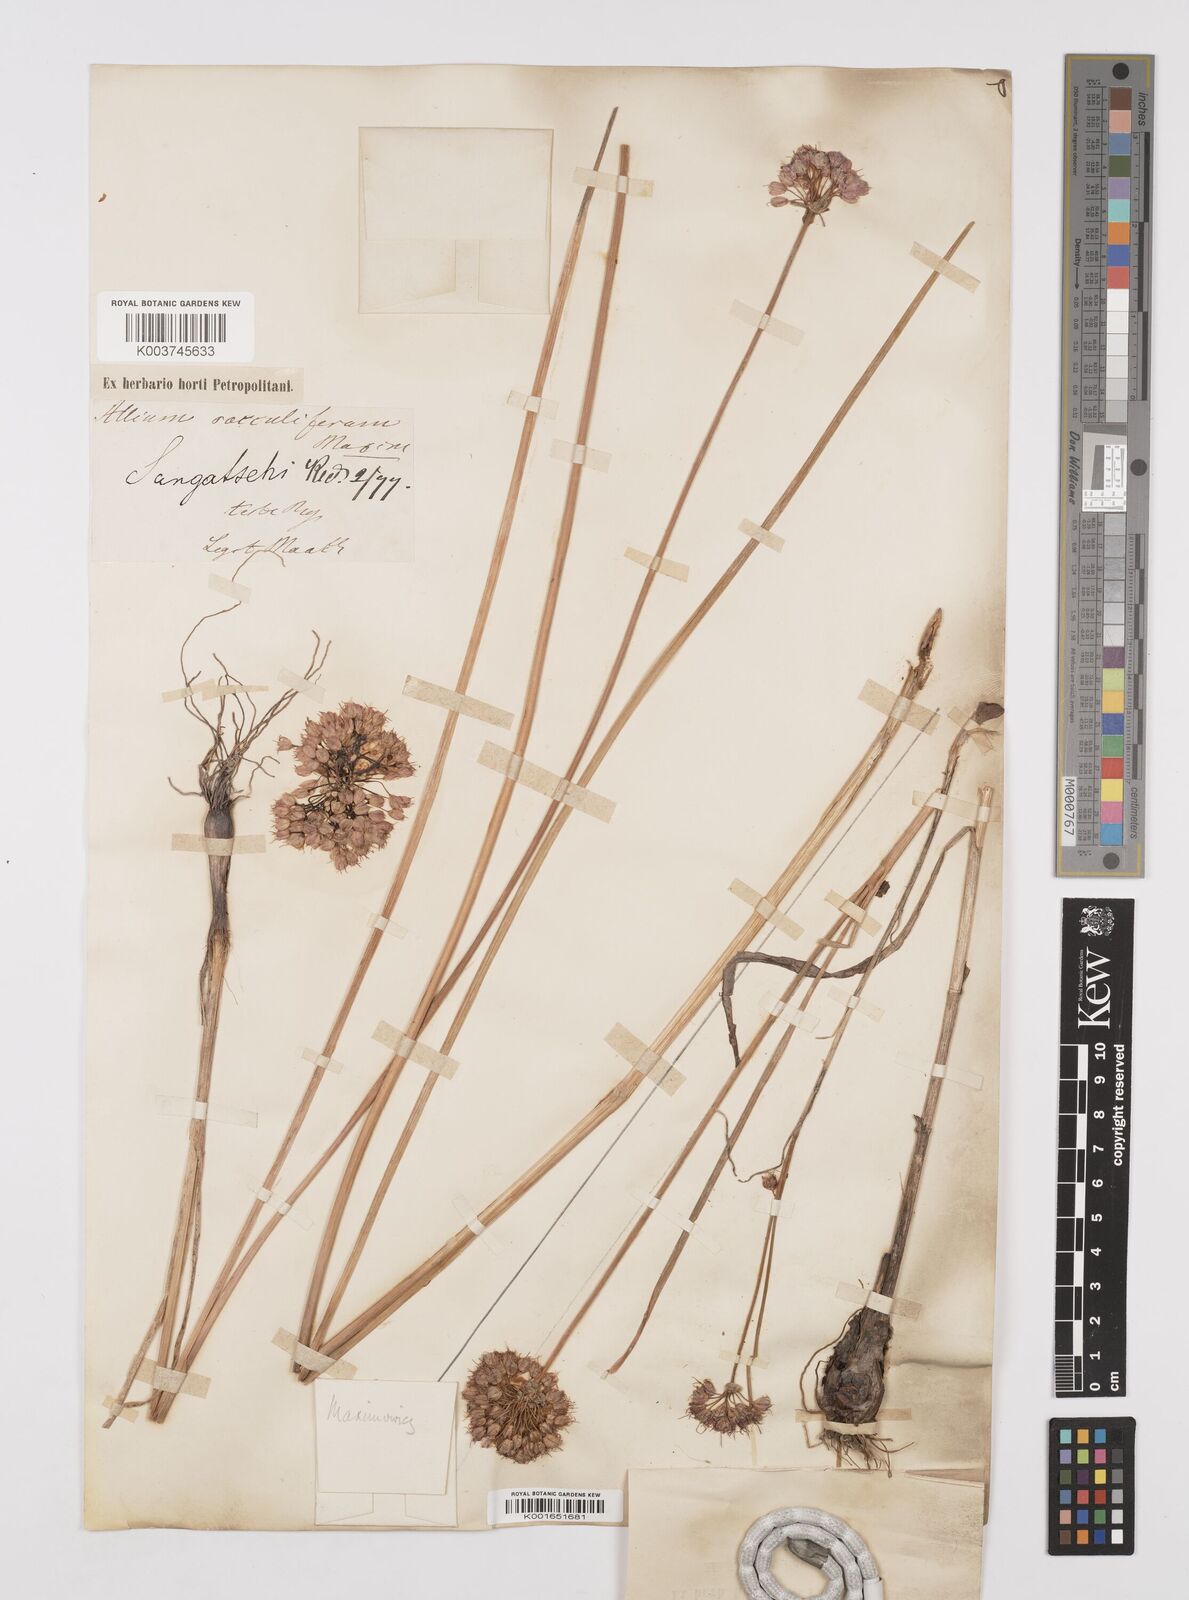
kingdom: Plantae
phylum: Tracheophyta
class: Liliopsida
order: Asparagales
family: Amaryllidaceae
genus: Allium
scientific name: Allium sacculiferum
